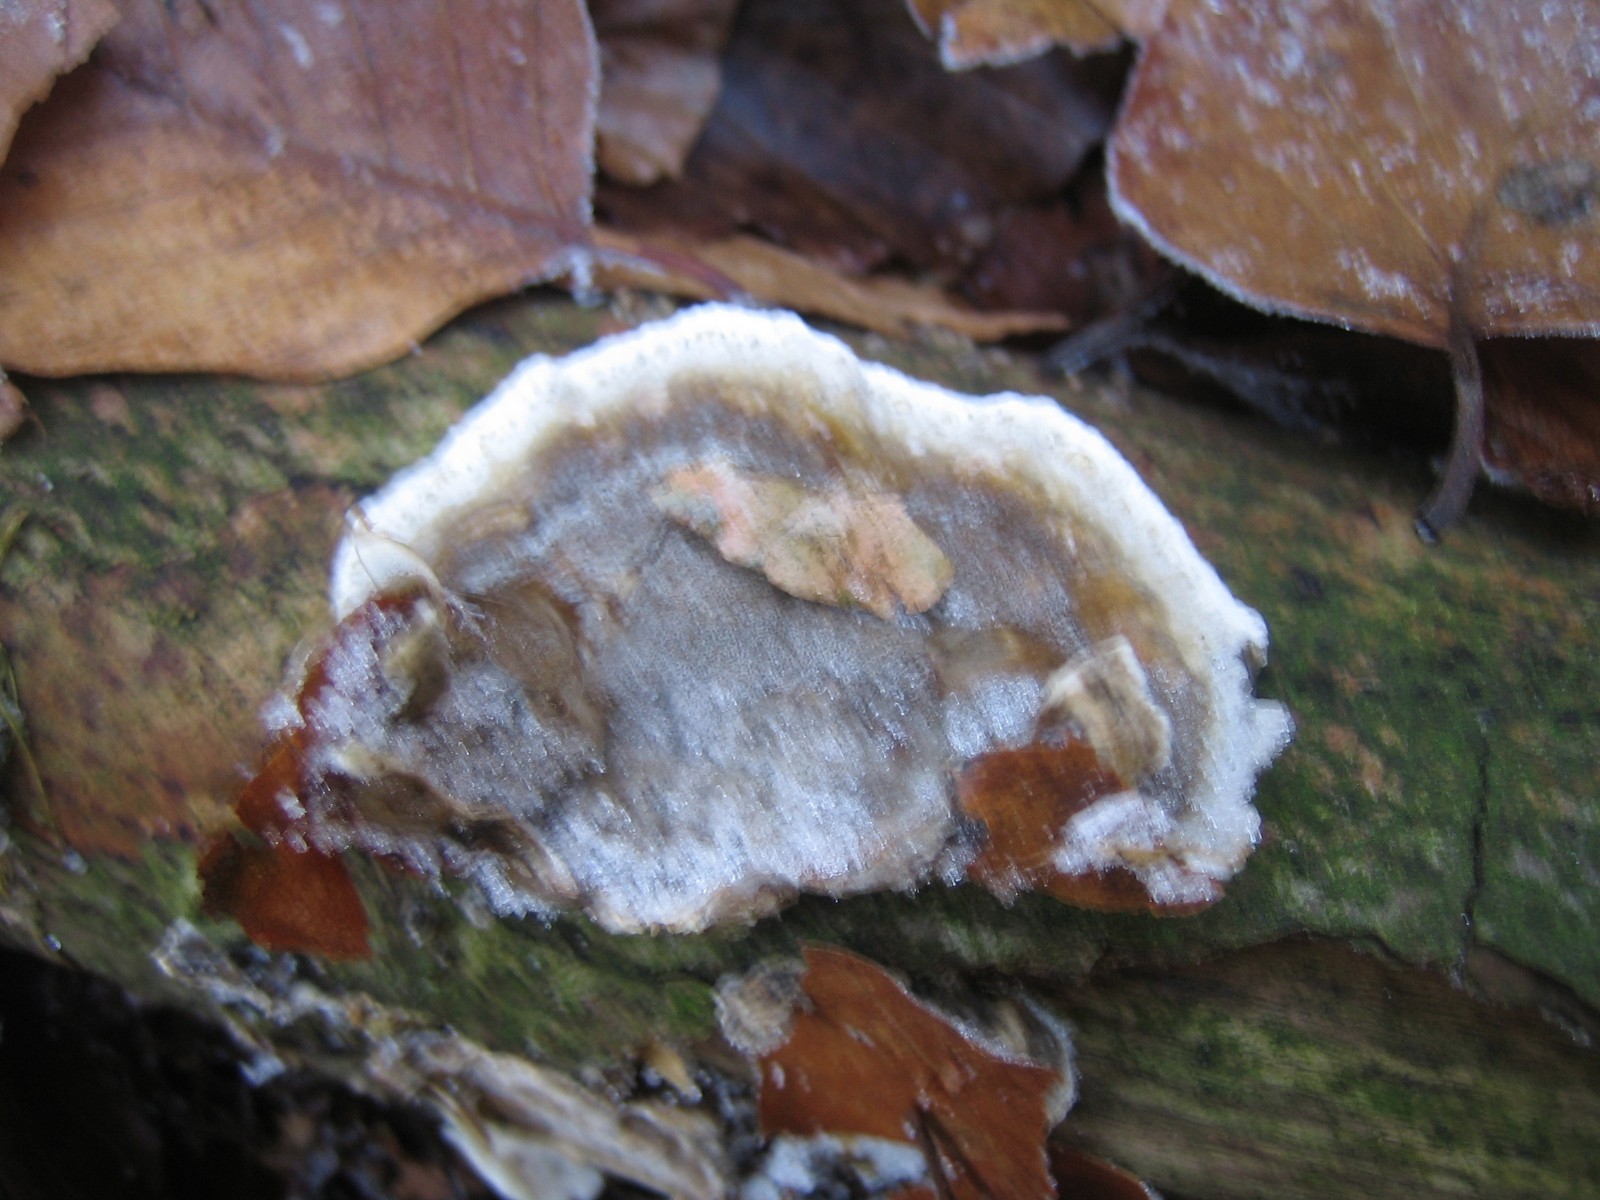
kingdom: Fungi
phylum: Basidiomycota
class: Agaricomycetes
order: Polyporales
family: Phanerochaetaceae
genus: Bjerkandera
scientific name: Bjerkandera adusta
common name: sveden sodporesvamp
